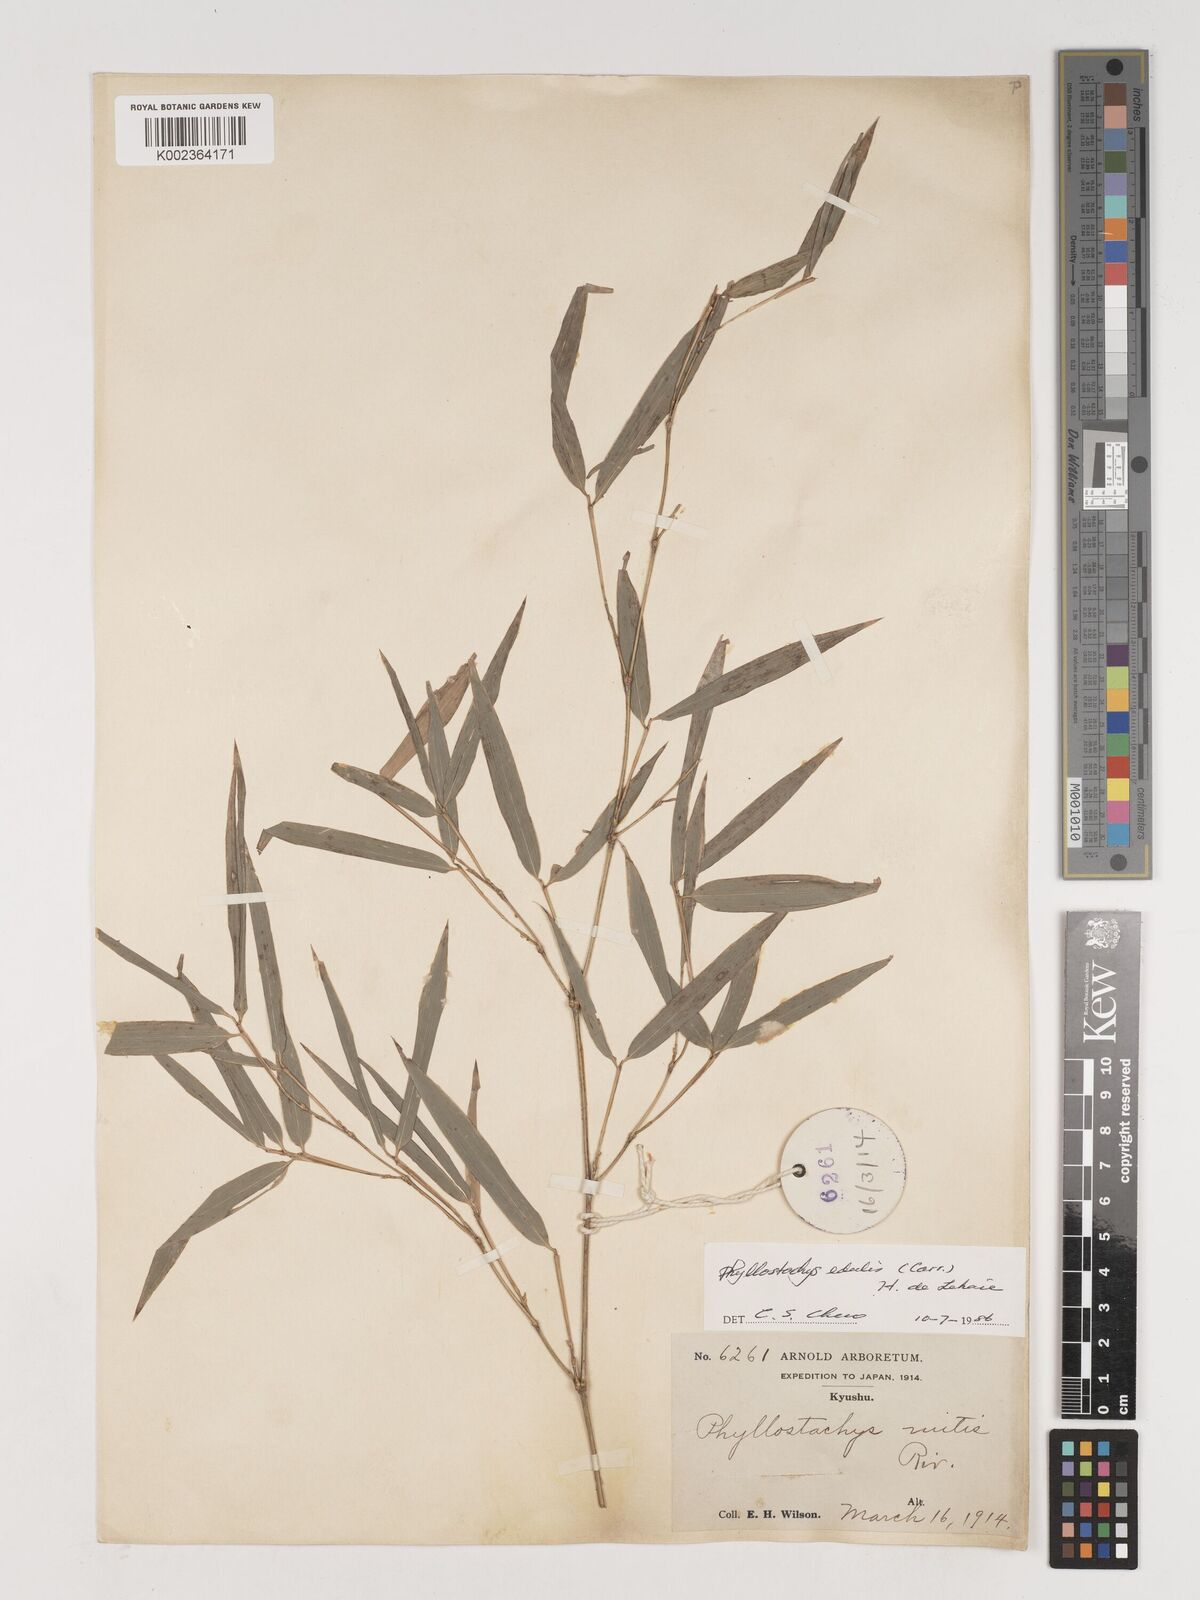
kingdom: Plantae
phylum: Tracheophyta
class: Liliopsida
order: Poales
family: Poaceae
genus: Phyllostachys
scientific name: Phyllostachys nidularia
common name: Broom bamboo
